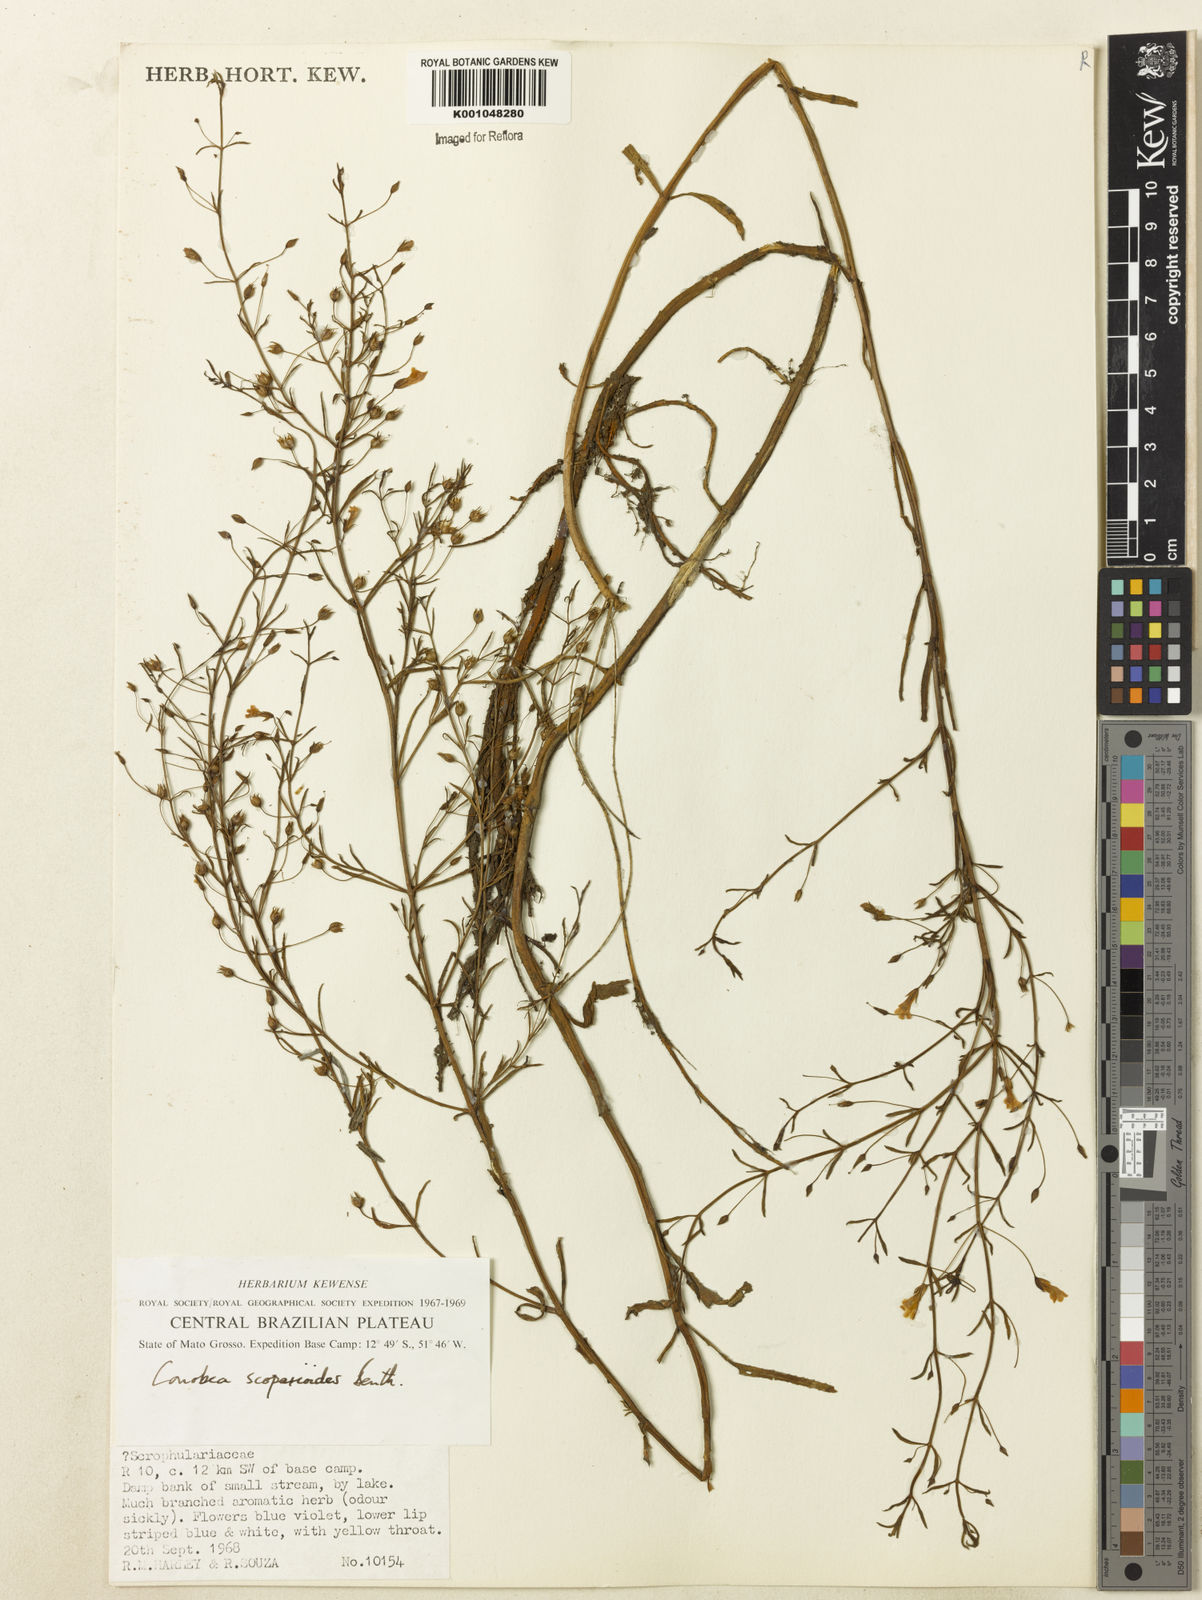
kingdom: Plantae
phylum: Tracheophyta
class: Magnoliopsida
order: Lamiales
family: Plantaginaceae
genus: Conobea
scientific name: Conobea scoparioides
